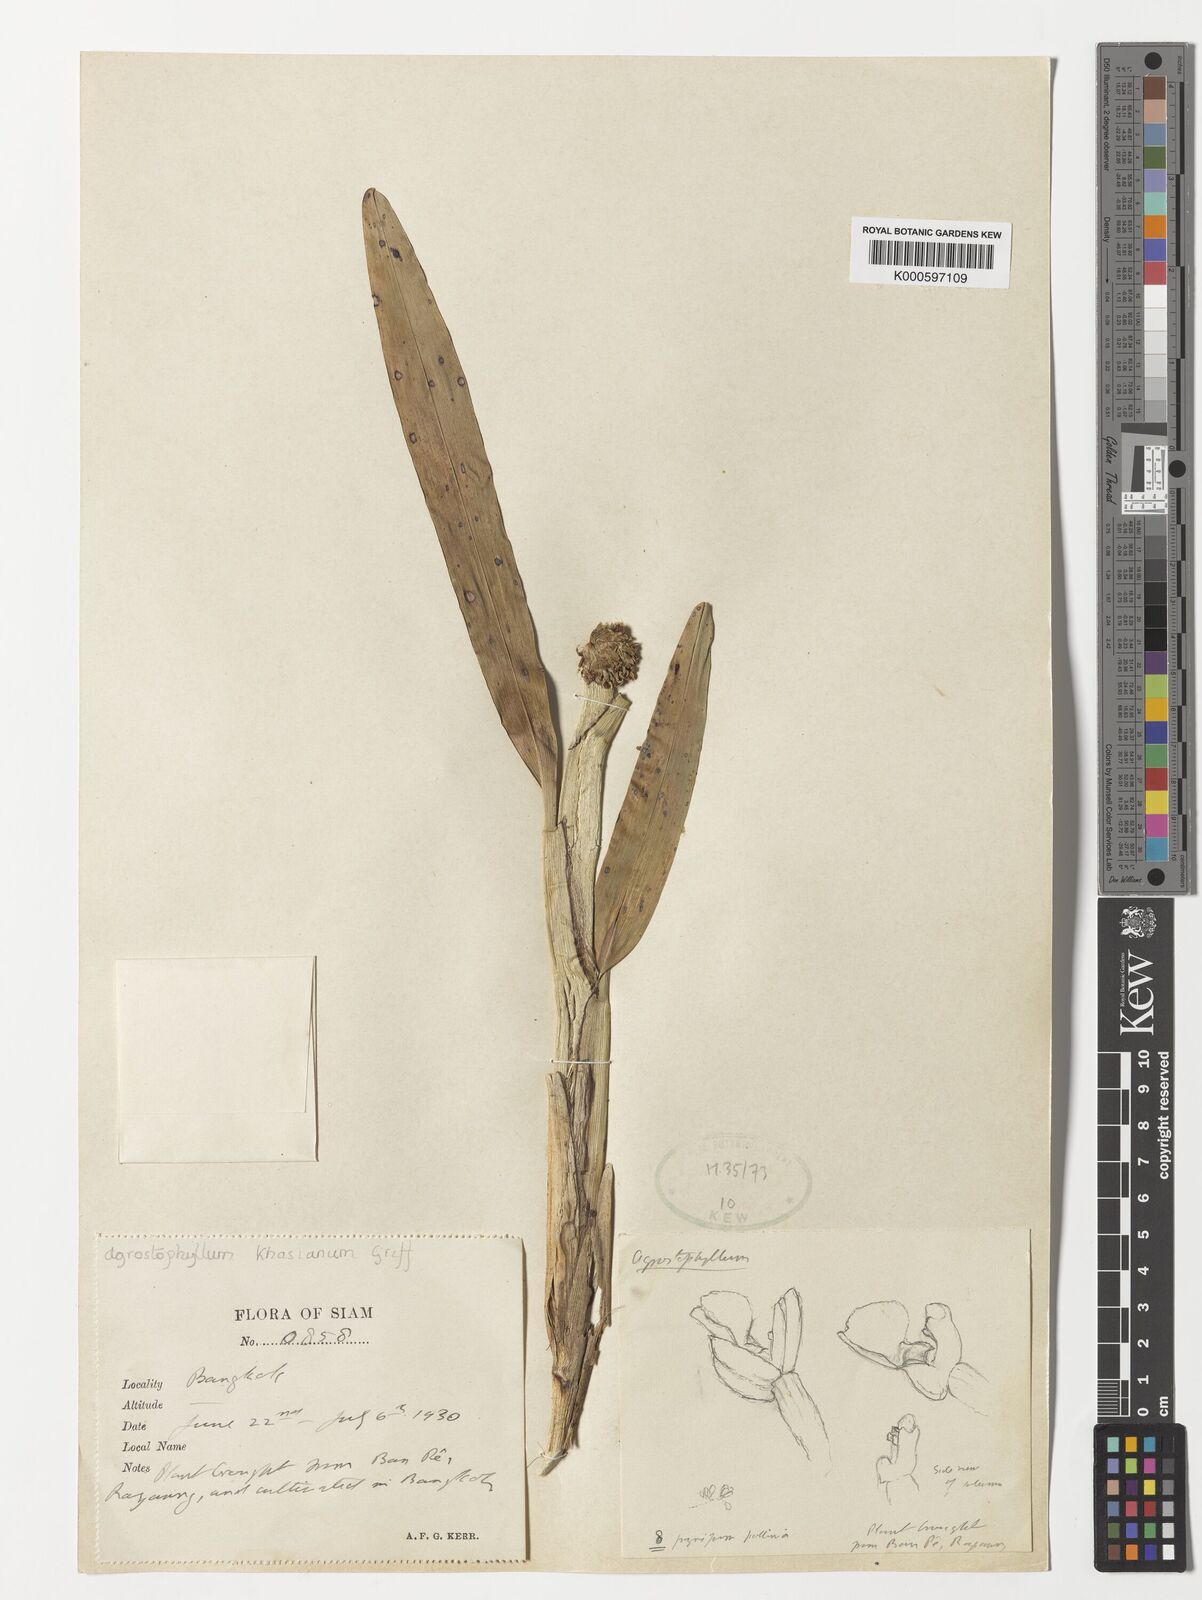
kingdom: Plantae
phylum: Tracheophyta
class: Liliopsida
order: Asparagales
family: Orchidaceae
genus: Agrostophyllum
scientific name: Agrostophyllum planicaule
